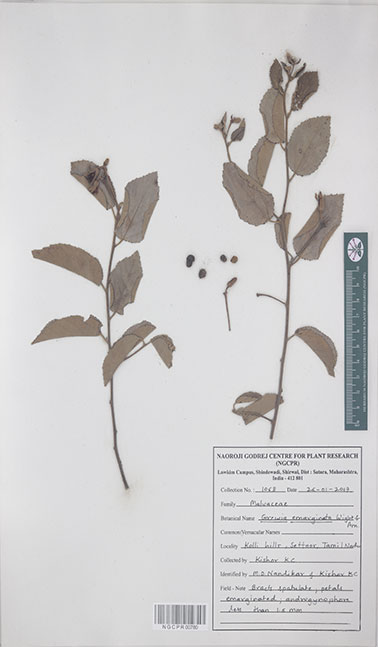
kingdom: Plantae
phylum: Tracheophyta
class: Magnoliopsida
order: Malvales
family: Malvaceae
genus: Grewia
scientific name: Grewia oppositifolia
